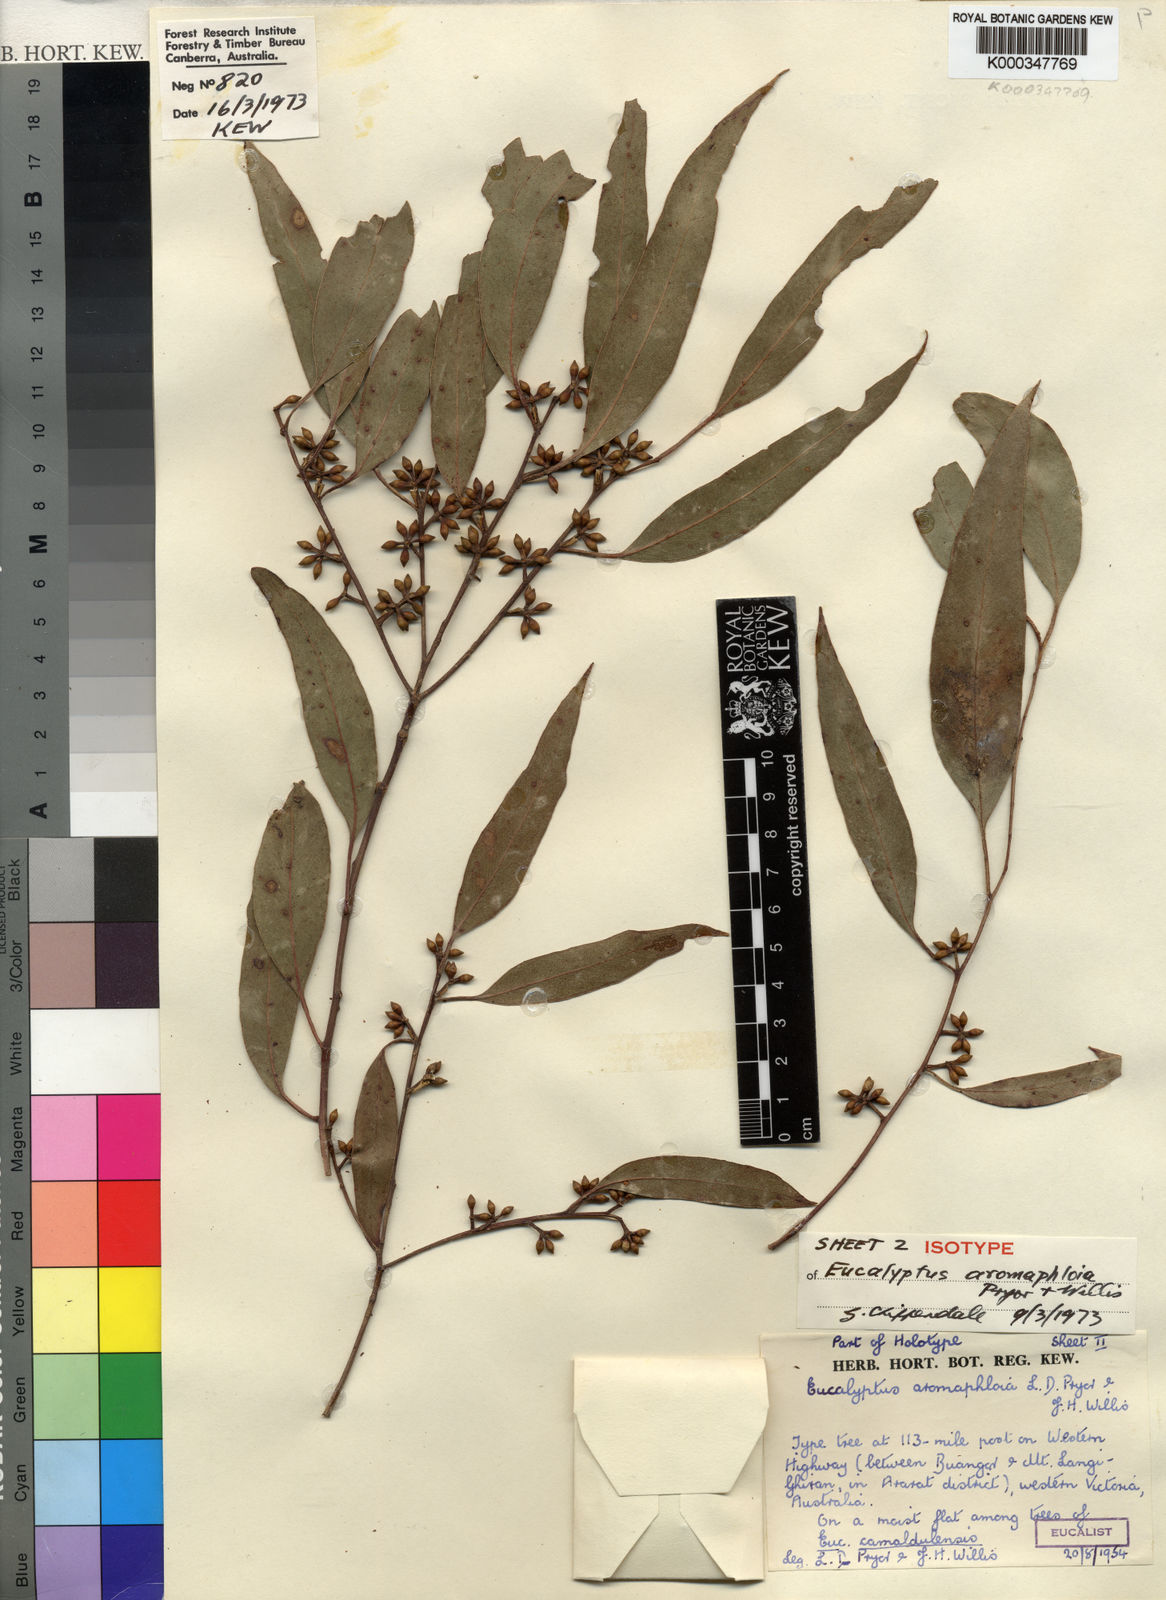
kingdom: Plantae
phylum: Tracheophyta
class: Magnoliopsida
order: Myrtales
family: Myrtaceae
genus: Eucalyptus
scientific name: Eucalyptus aromaphloia
